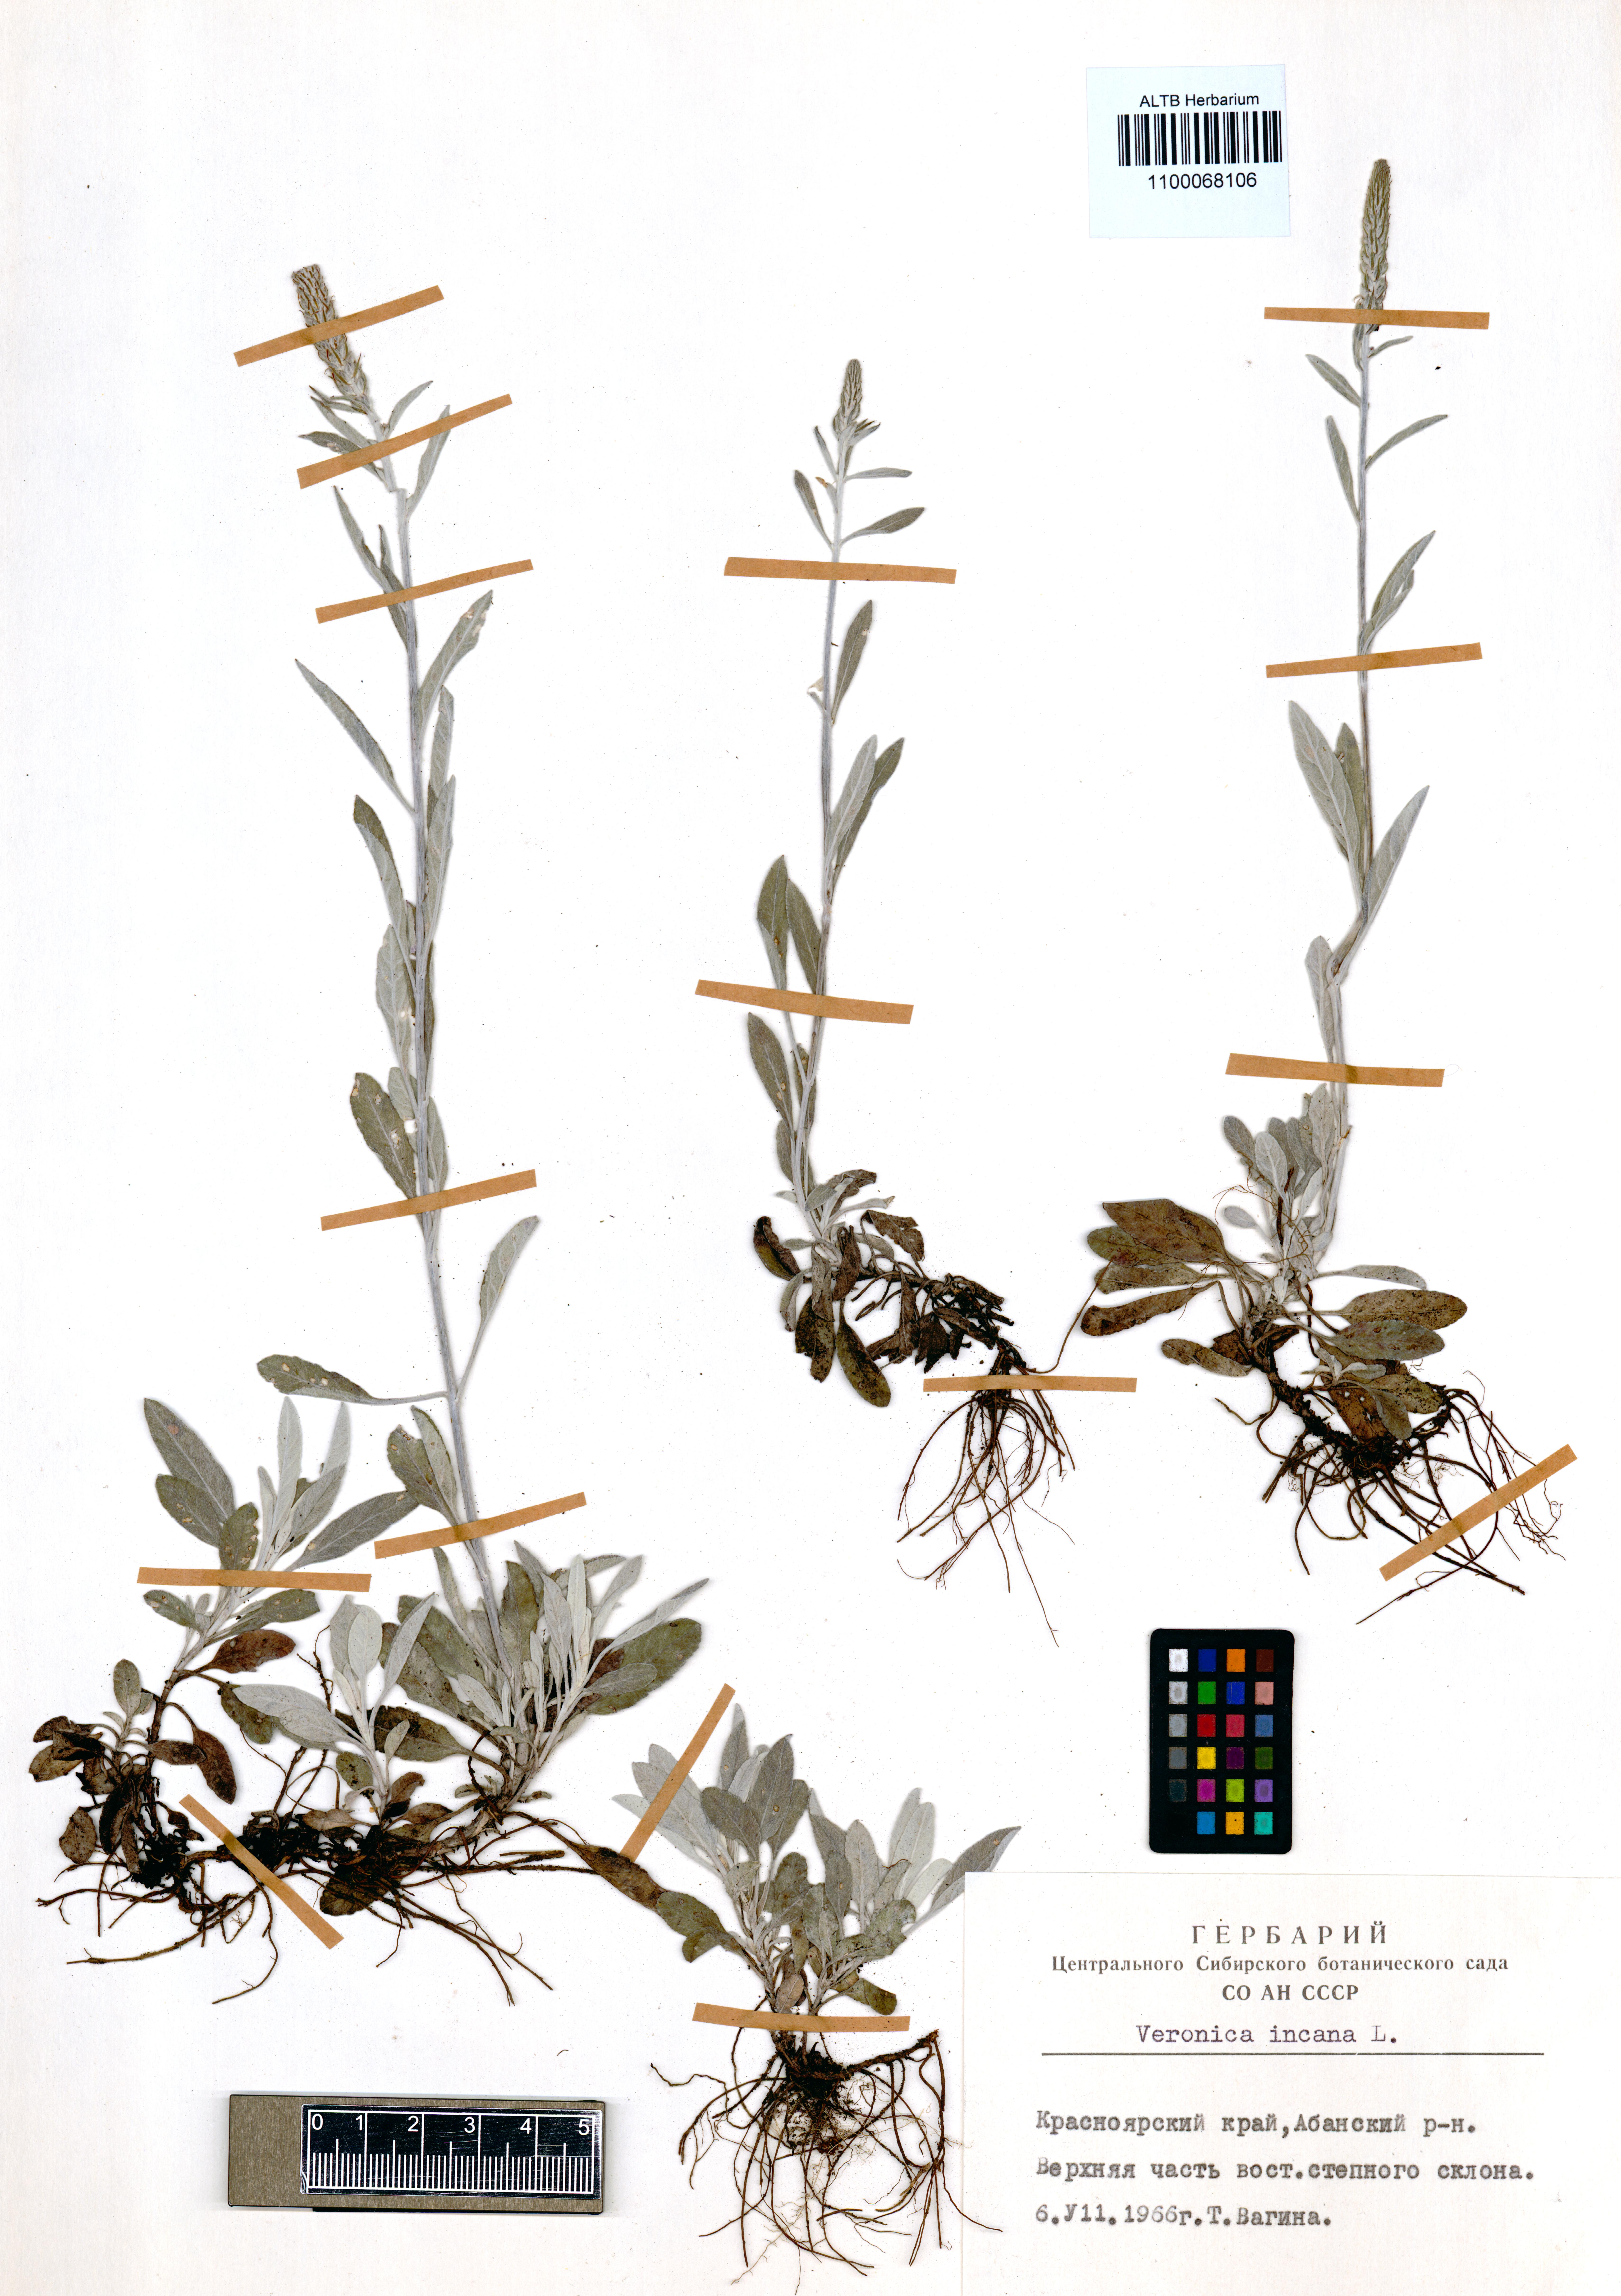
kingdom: Plantae
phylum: Tracheophyta
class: Magnoliopsida
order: Lamiales
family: Plantaginaceae
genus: Veronica
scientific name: Veronica incana
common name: Silver speedwell
